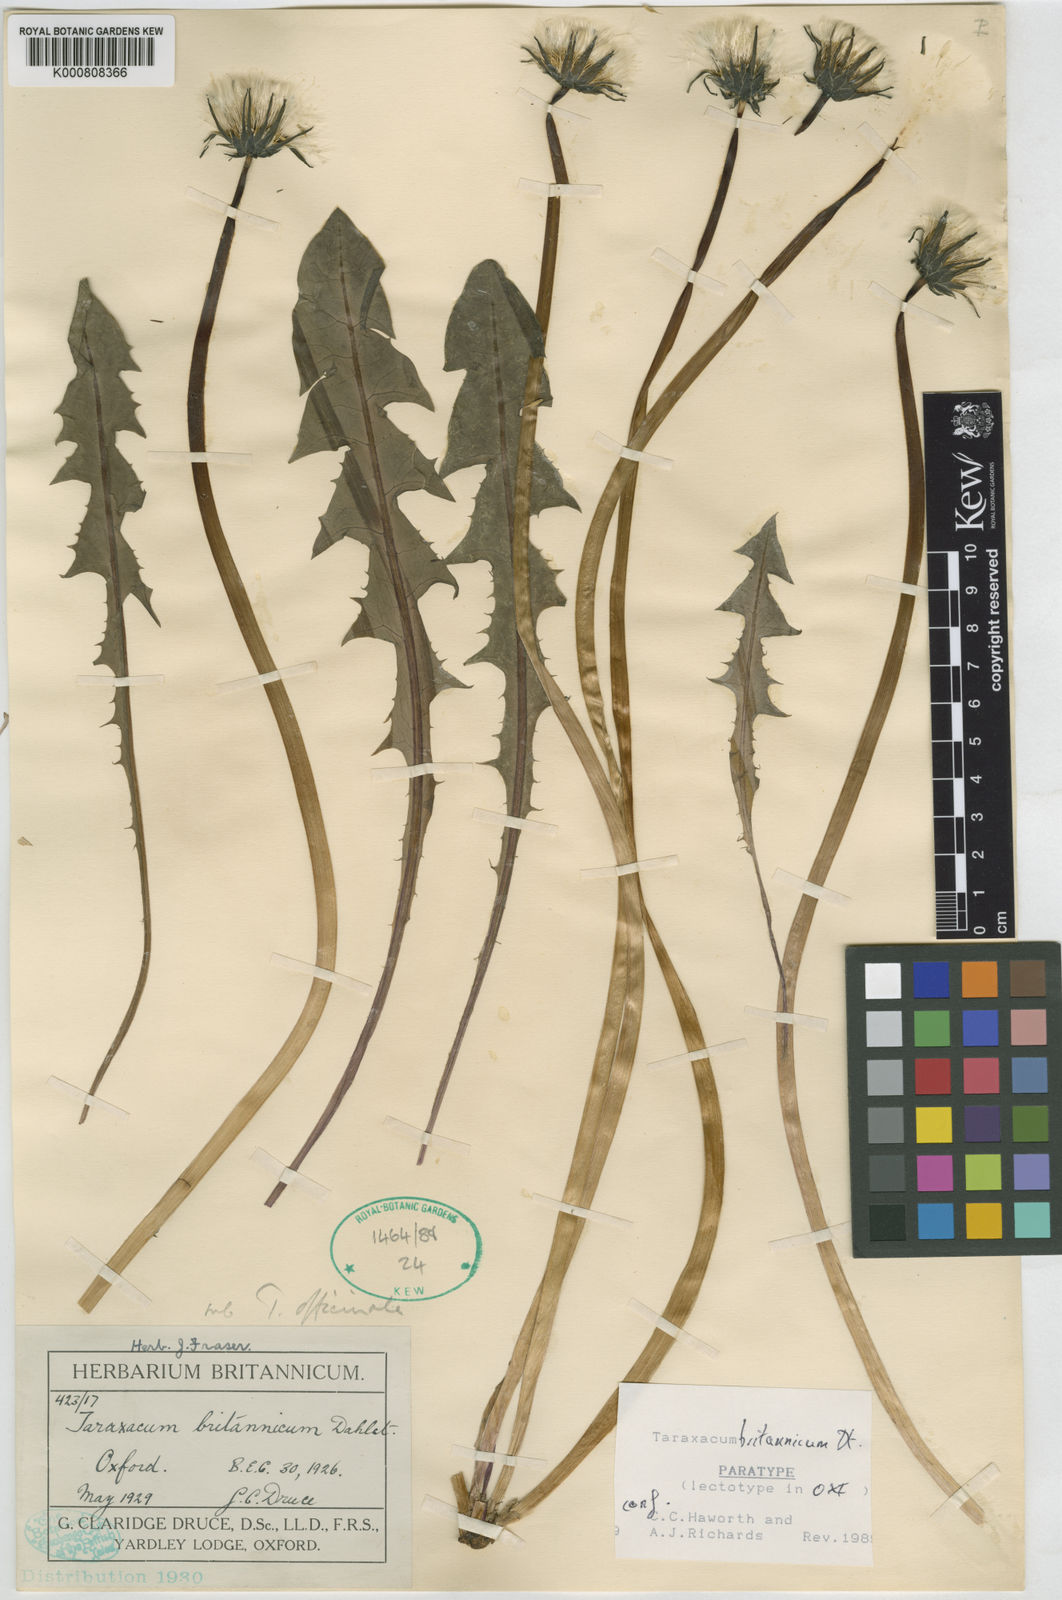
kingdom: Plantae
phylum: Tracheophyta
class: Magnoliopsida
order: Asterales
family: Asteraceae
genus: Taraxacum
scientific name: Taraxacum britannicum
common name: British dandelion
